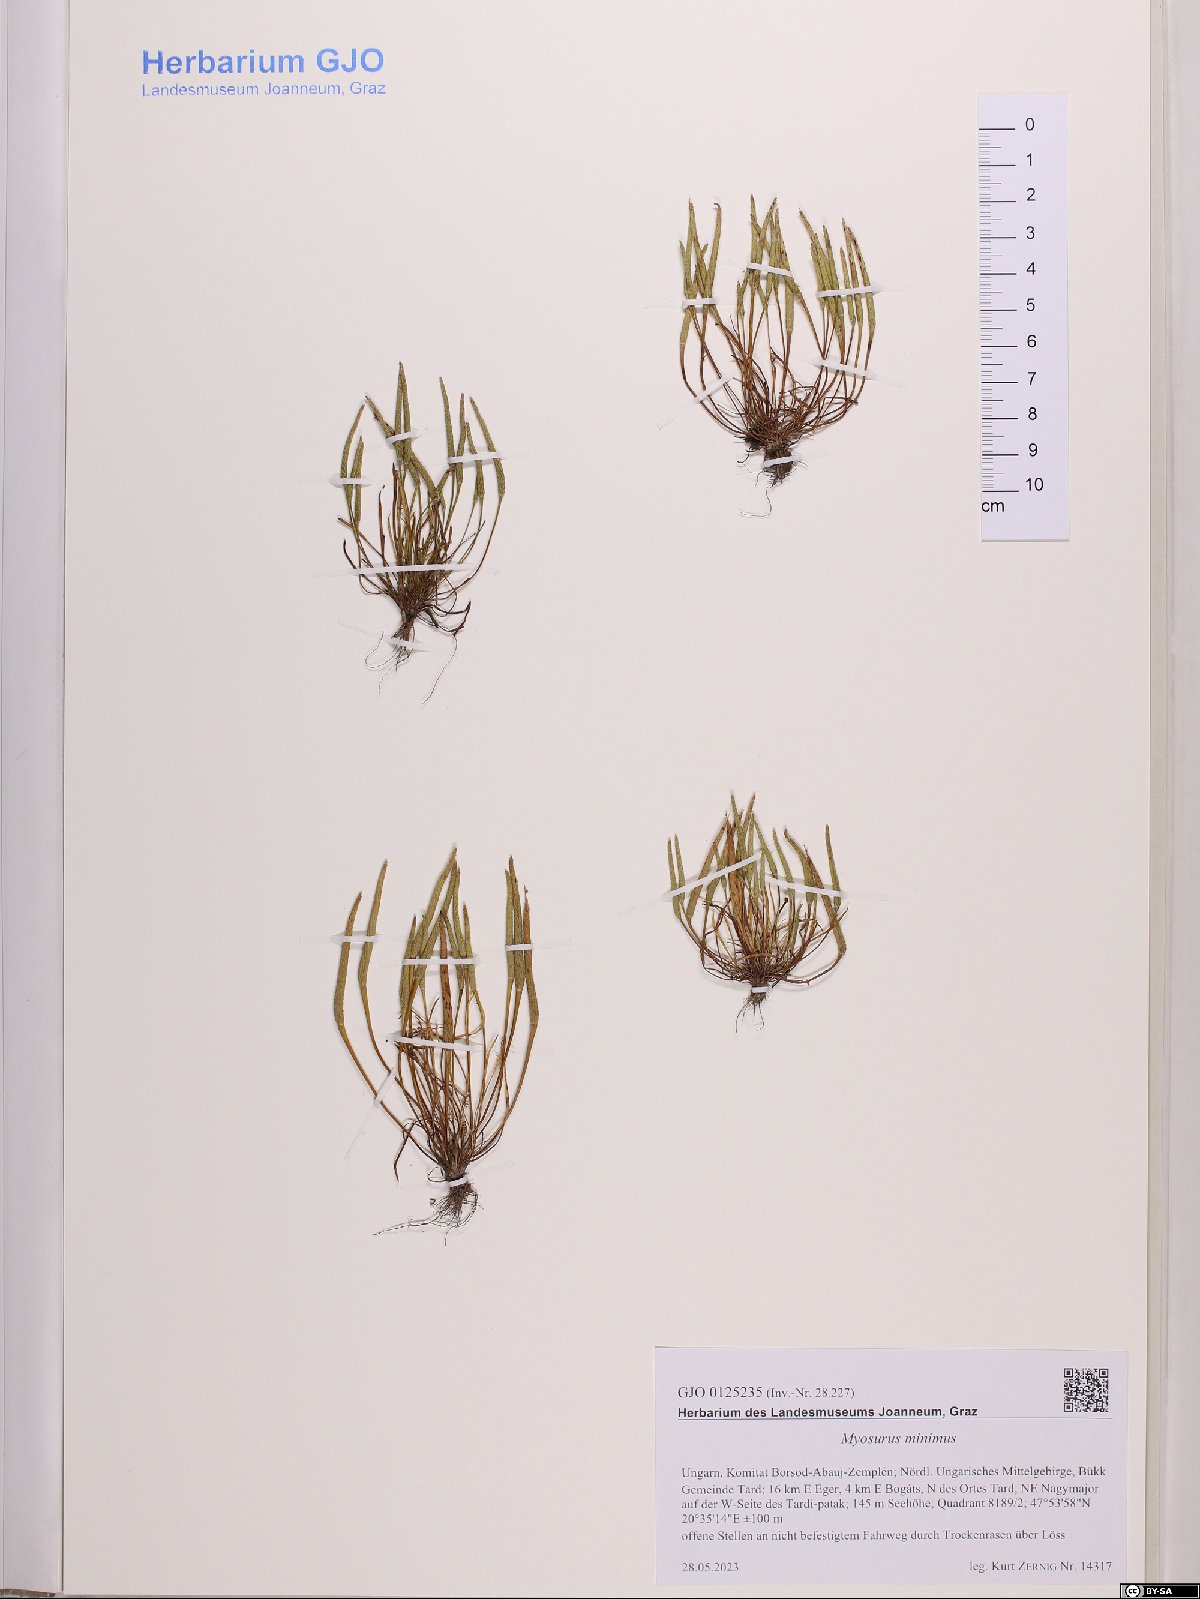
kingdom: Plantae
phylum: Tracheophyta
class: Magnoliopsida
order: Ranunculales
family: Ranunculaceae
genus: Myosurus
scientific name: Myosurus minimus
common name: Mousetail
